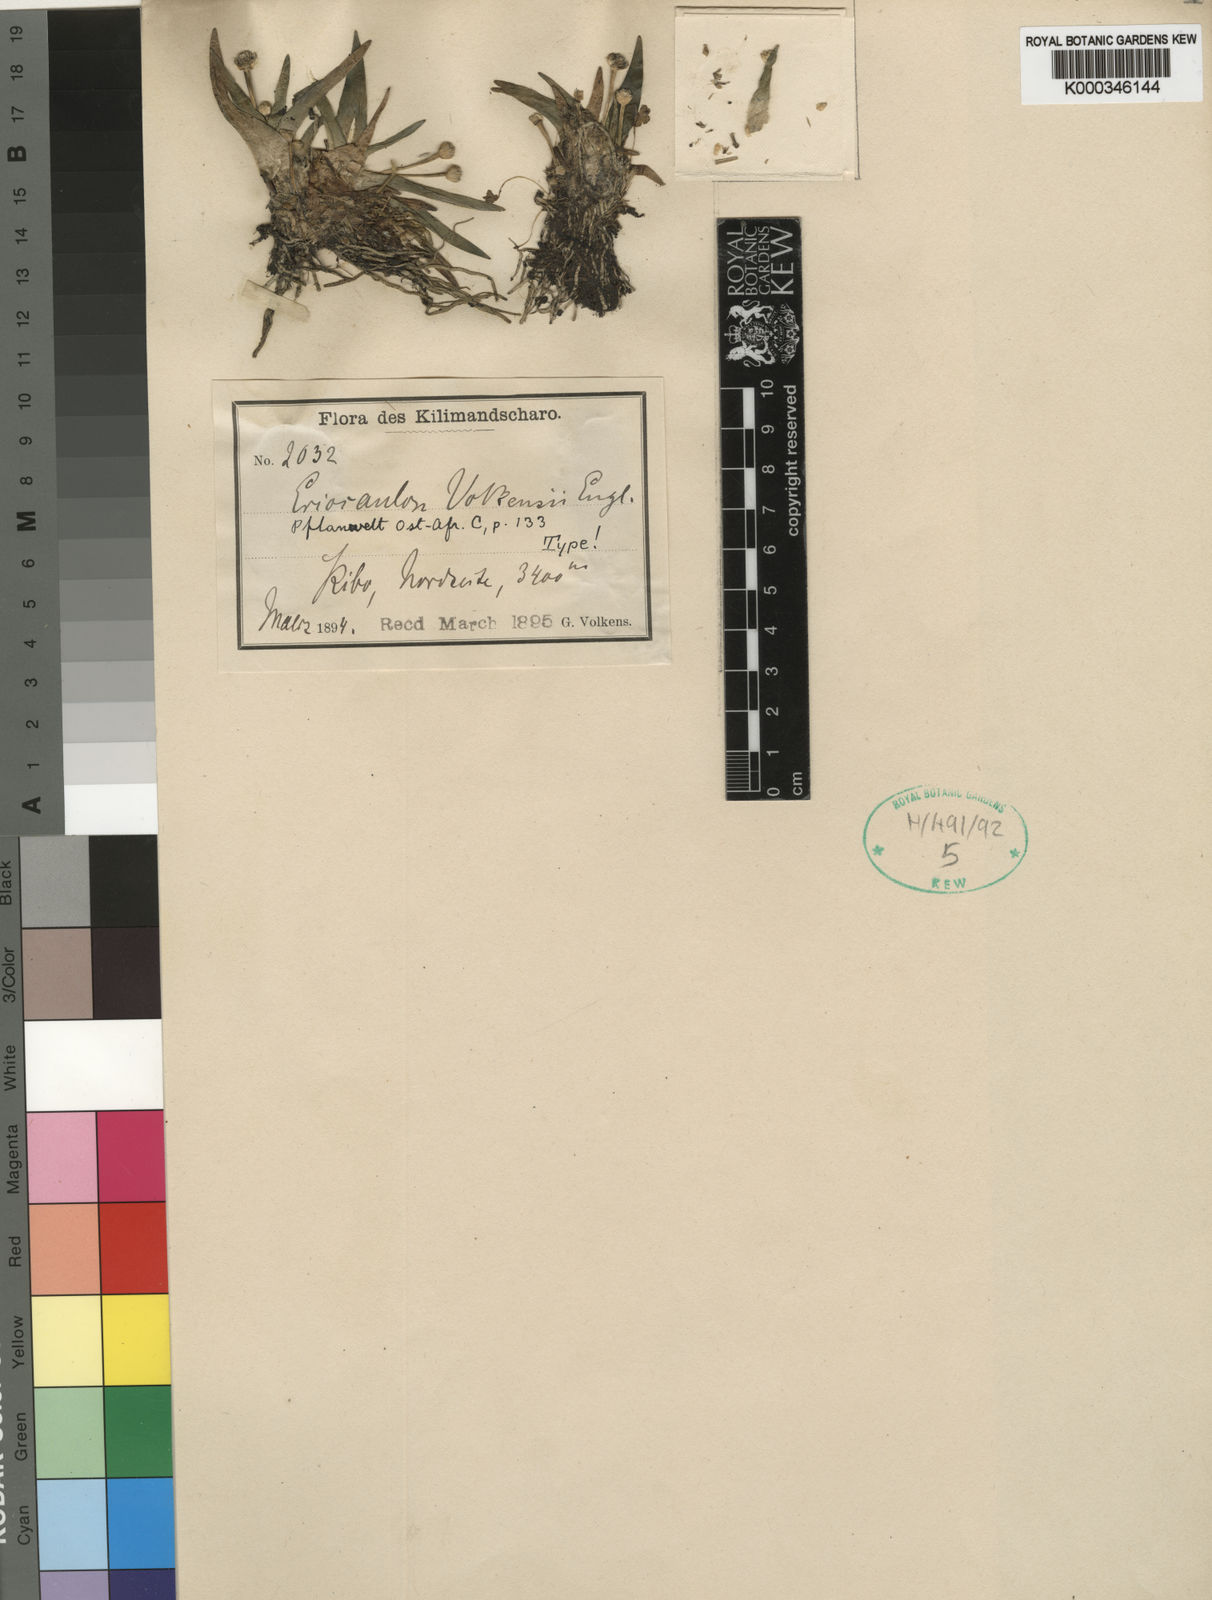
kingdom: Plantae
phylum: Tracheophyta
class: Liliopsida
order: Poales
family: Eriocaulaceae
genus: Eriocaulon
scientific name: Eriocaulon volkensii
